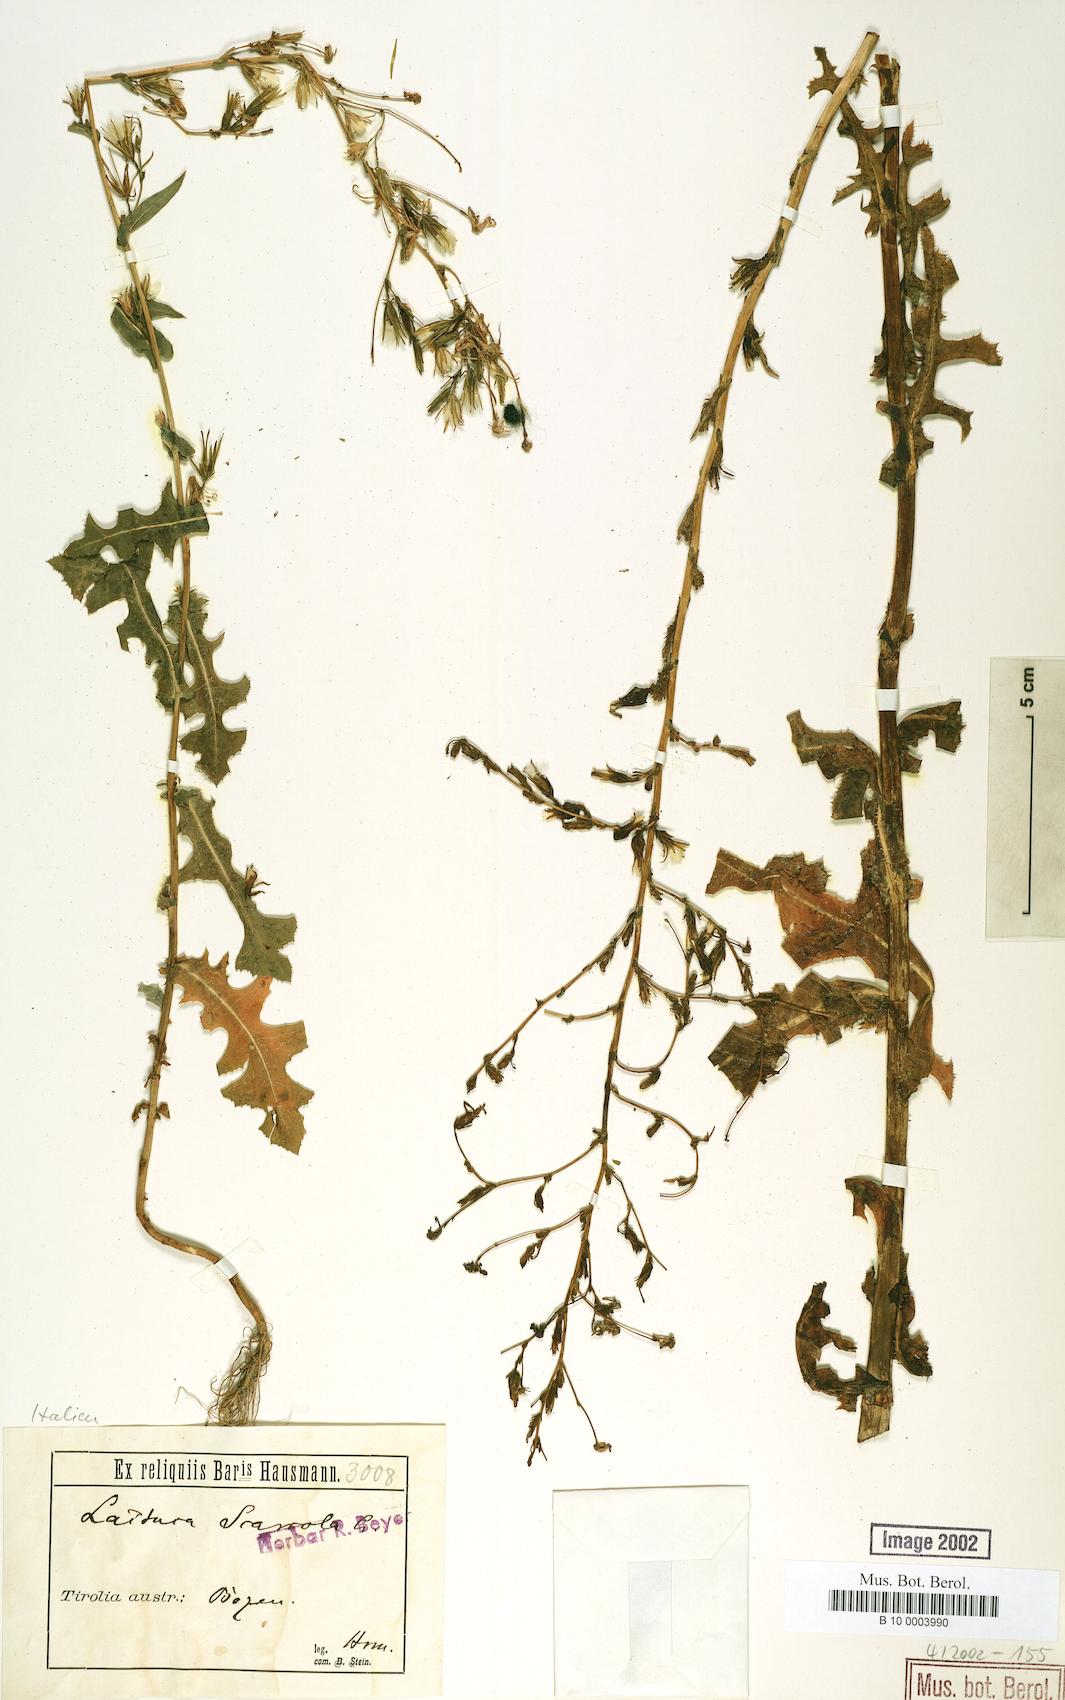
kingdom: Plantae
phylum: Tracheophyta
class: Magnoliopsida
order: Asterales
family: Asteraceae
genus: Lactuca
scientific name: Lactuca serriola
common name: Prickly lettuce
